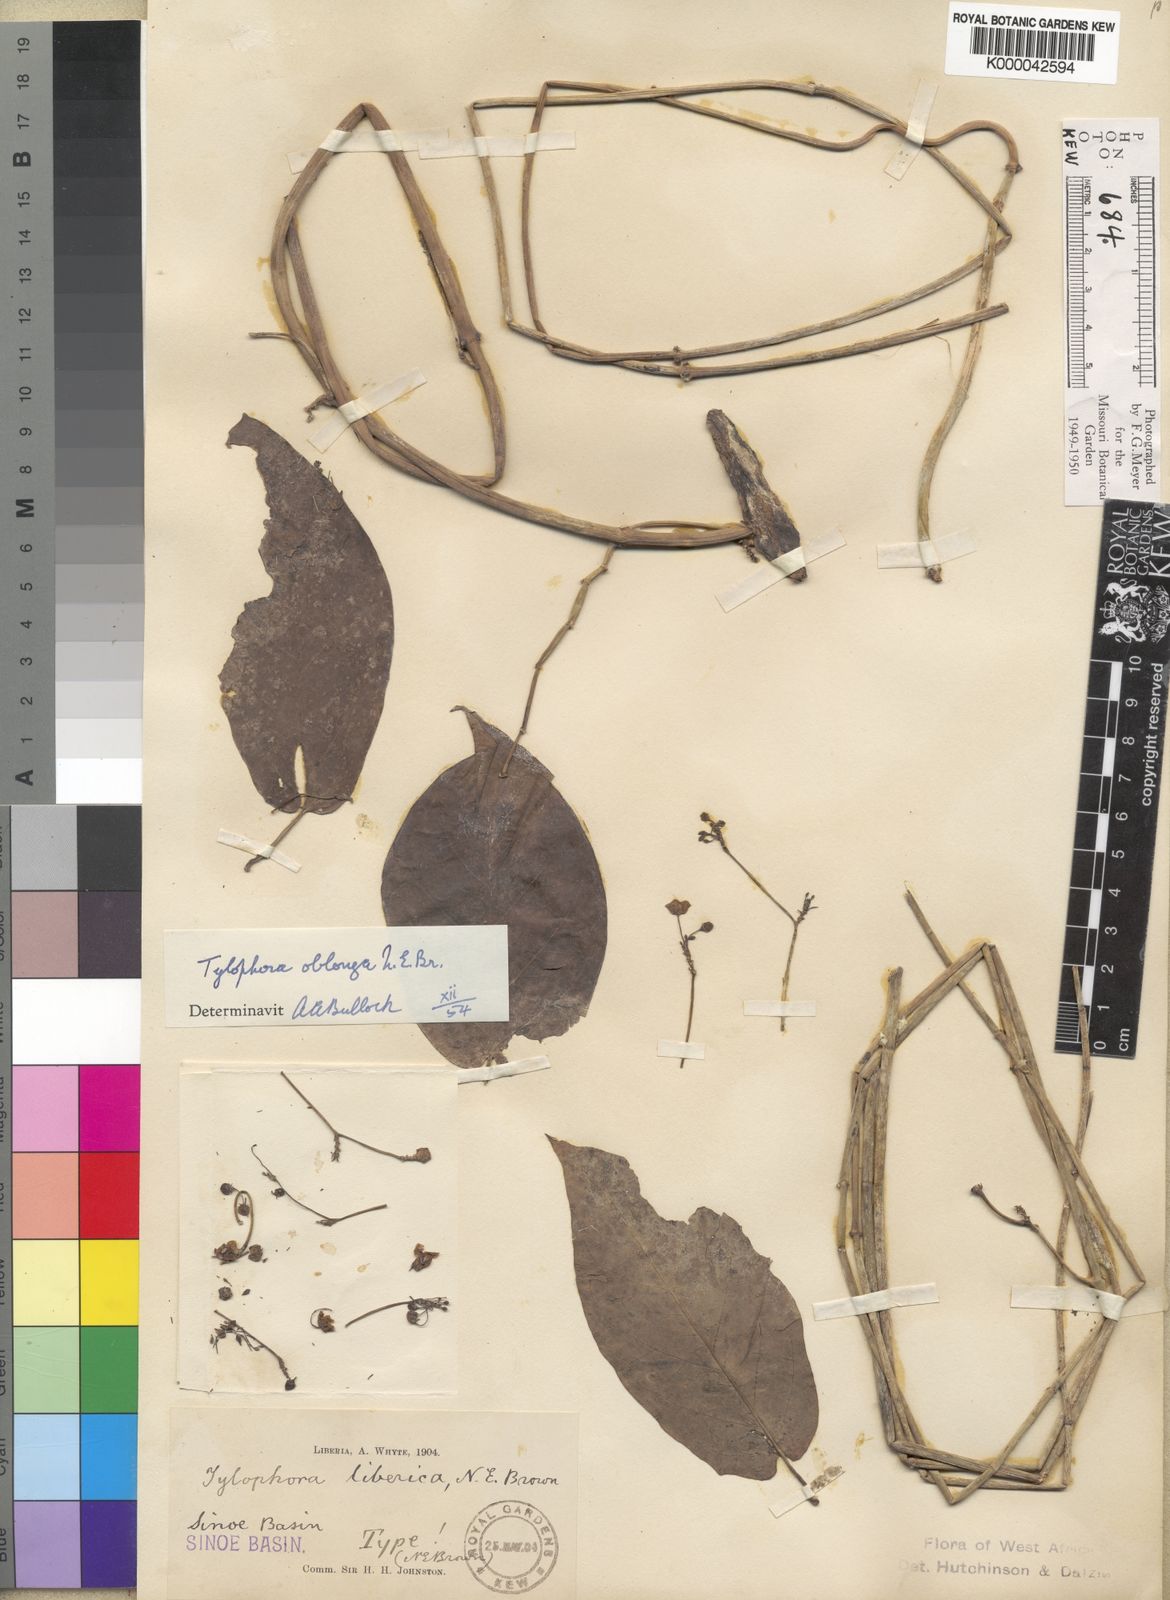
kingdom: Plantae
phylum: Tracheophyta
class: Magnoliopsida
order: Gentianales
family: Apocynaceae
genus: Vincetoxicum
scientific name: Vincetoxicum oblongum
